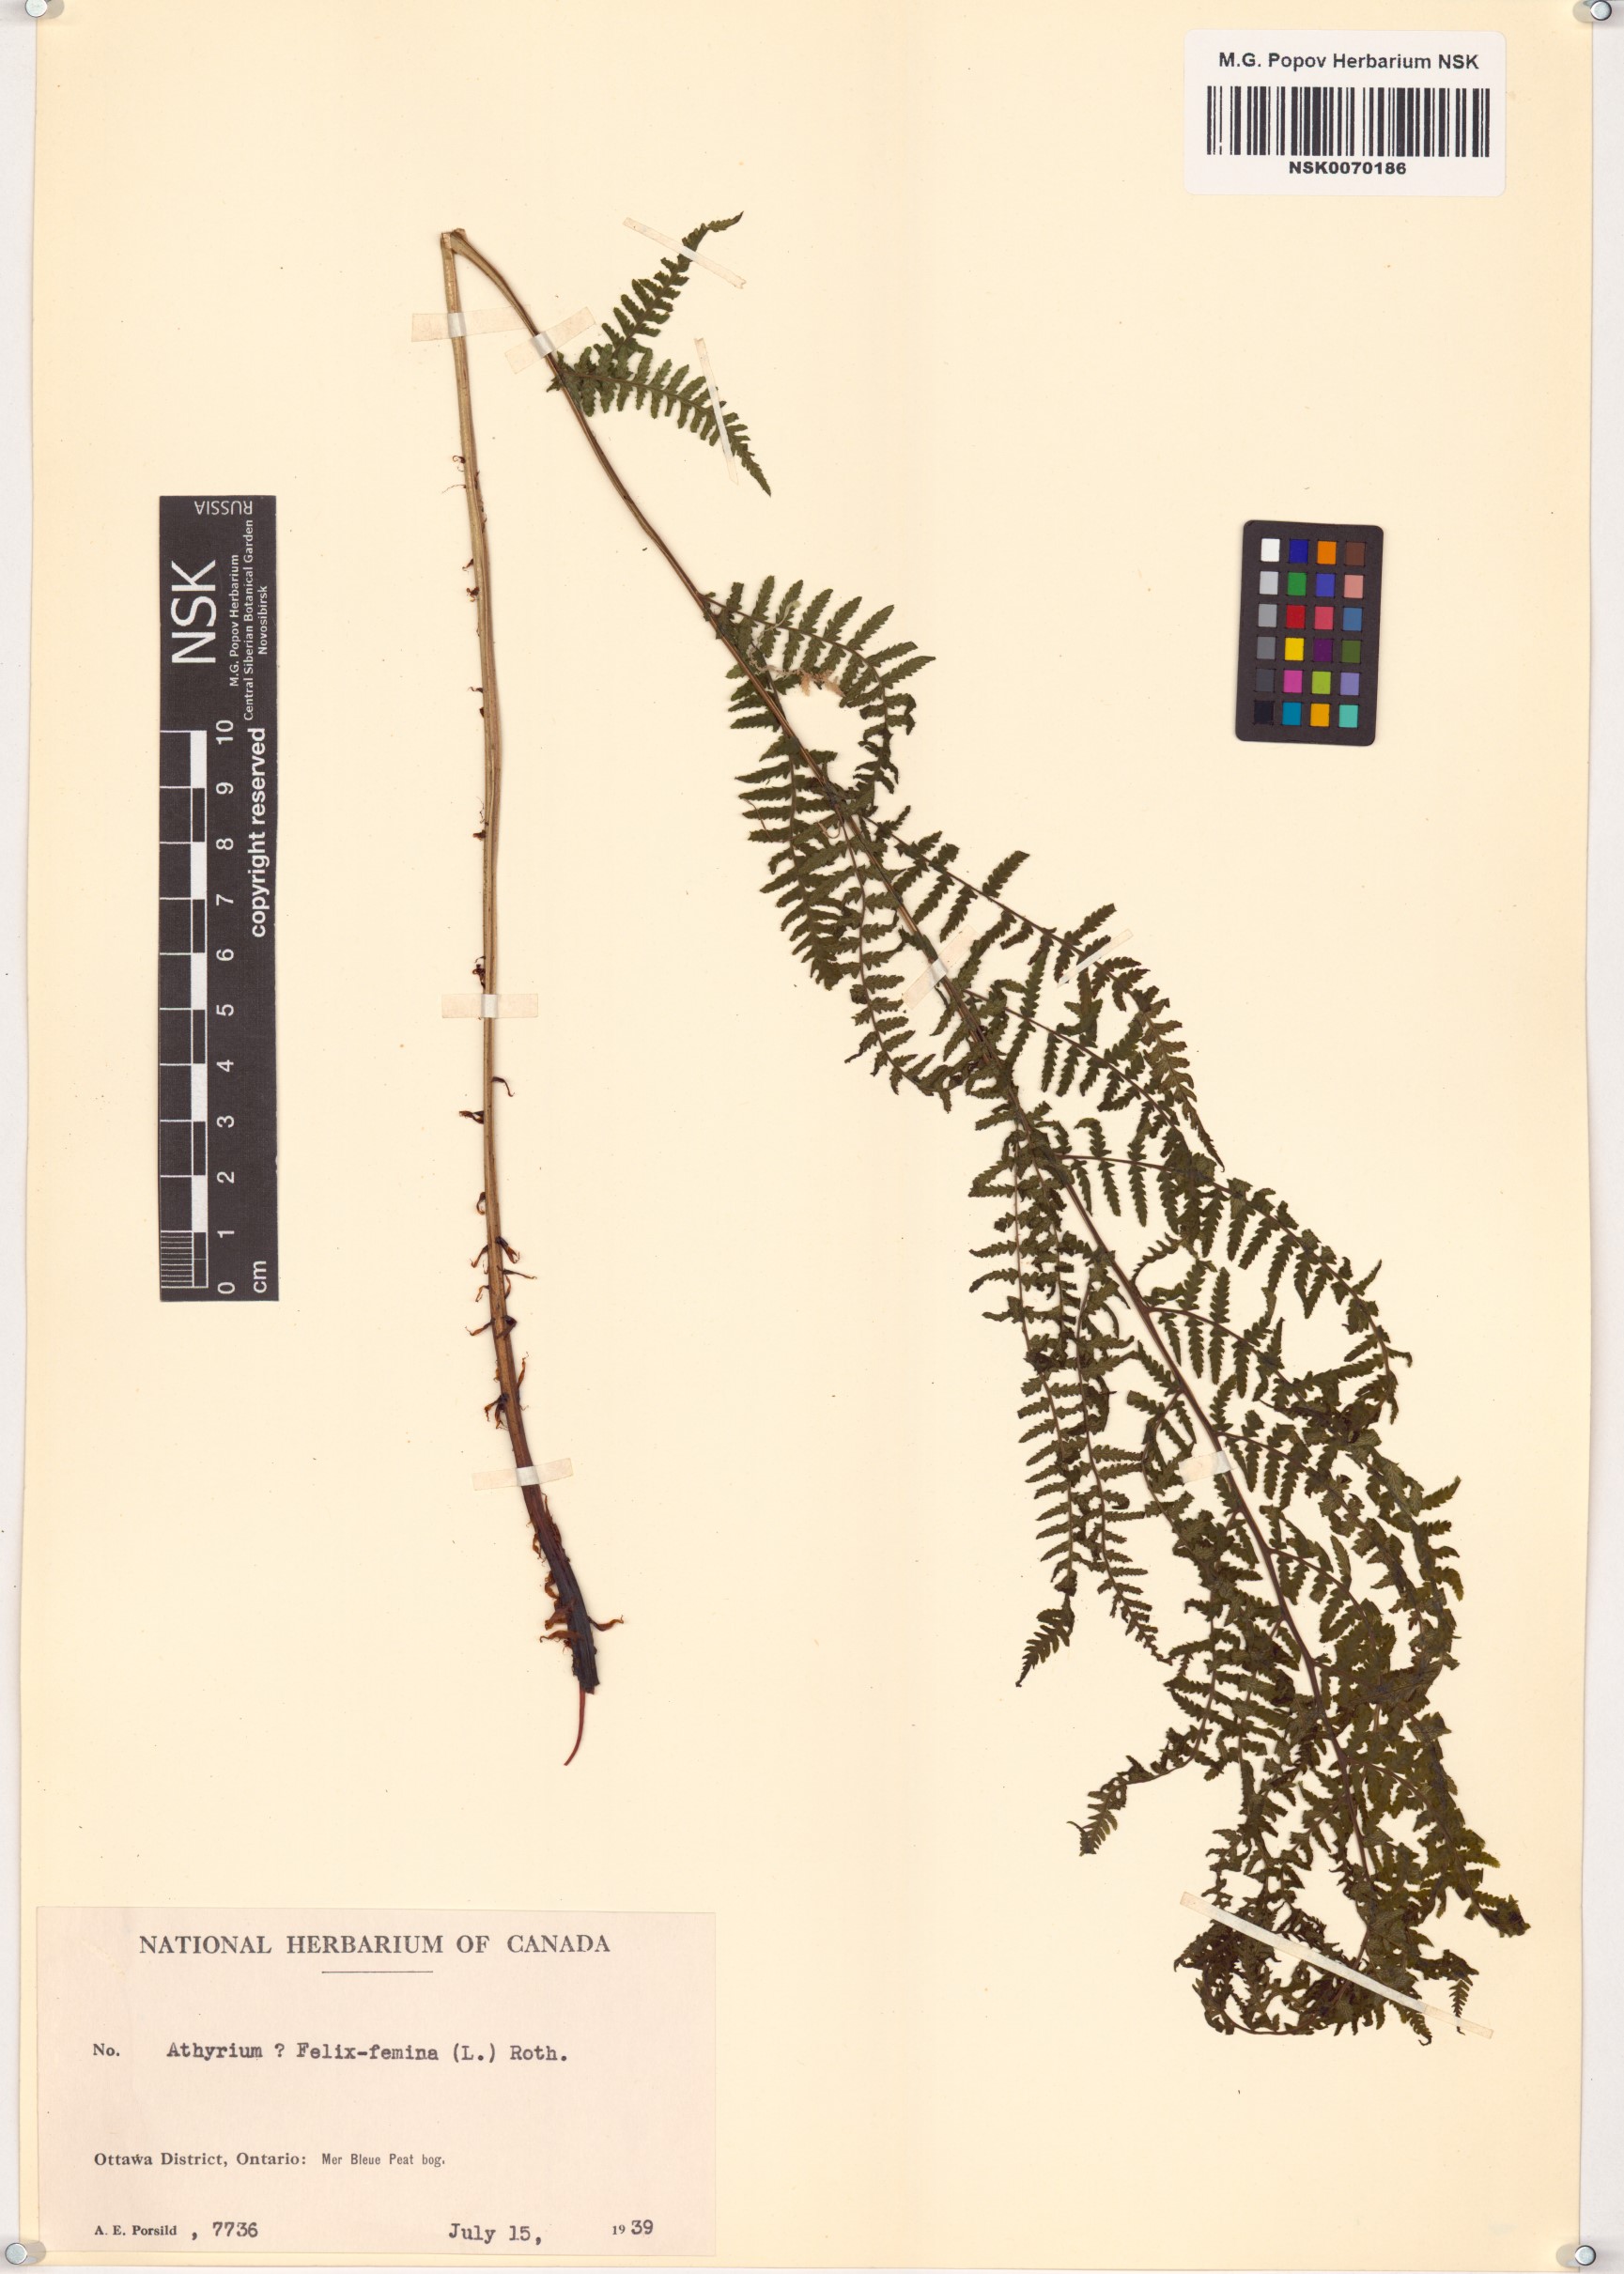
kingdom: Plantae
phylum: Tracheophyta
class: Polypodiopsida
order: Polypodiales
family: Athyriaceae
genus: Athyrium
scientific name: Athyrium filix-femina
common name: Lady fern
